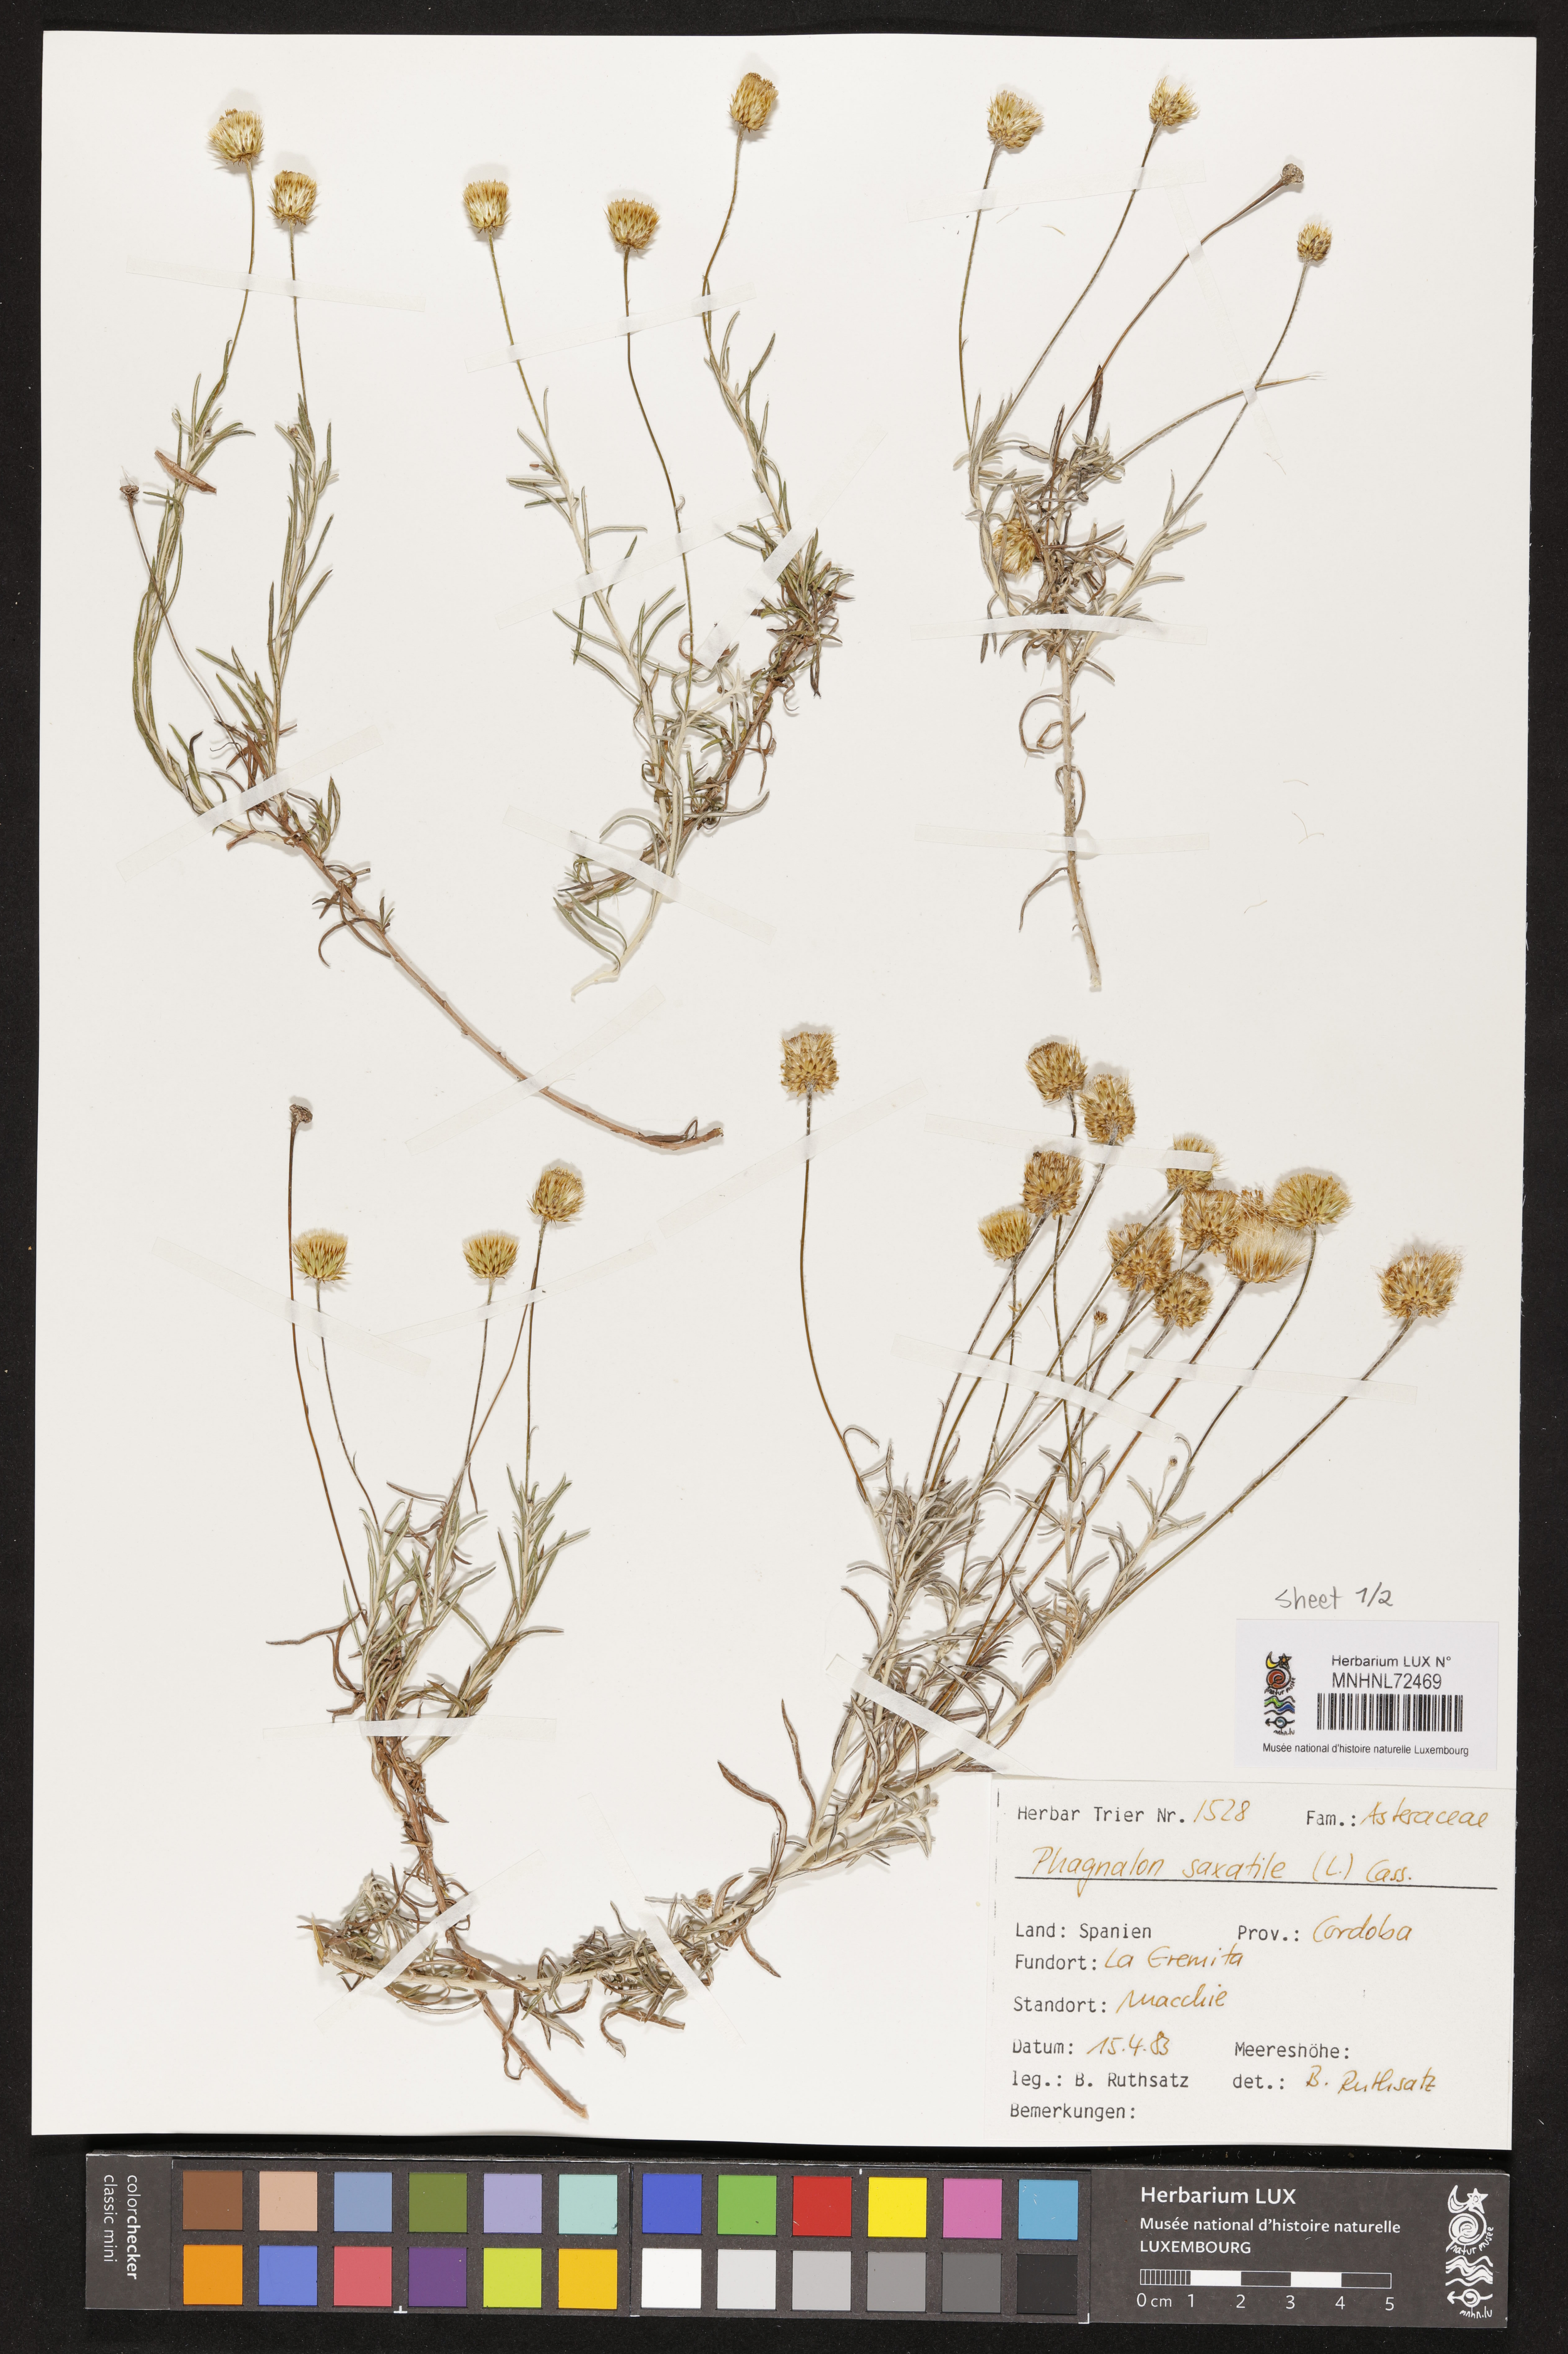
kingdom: Plantae
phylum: Tracheophyta
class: Magnoliopsida
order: Asterales
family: Asteraceae
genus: Phagnalon
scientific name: Phagnalon saxatile
